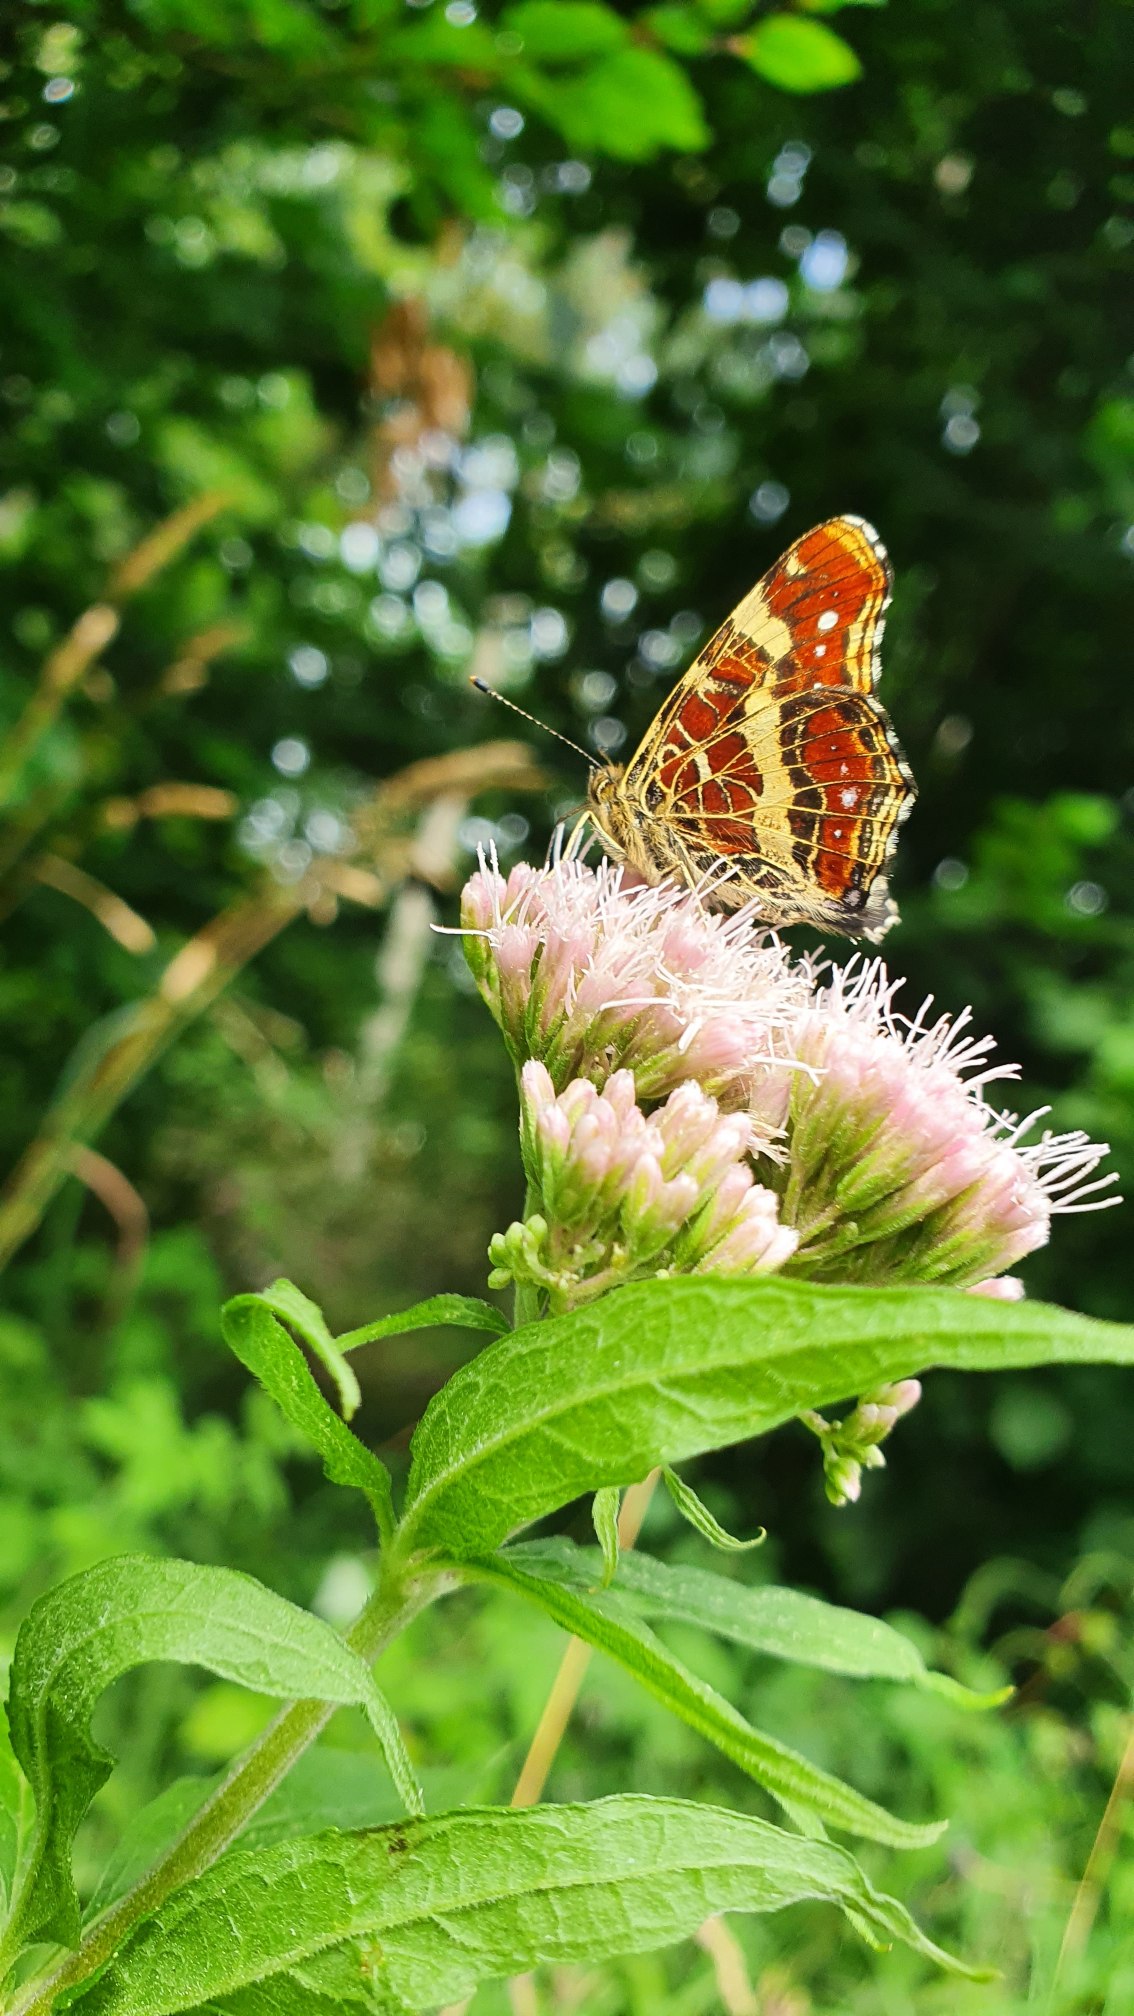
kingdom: Animalia
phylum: Arthropoda
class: Insecta
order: Lepidoptera
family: Nymphalidae
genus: Araschnia
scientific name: Araschnia levana
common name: Nældesommerfugl
